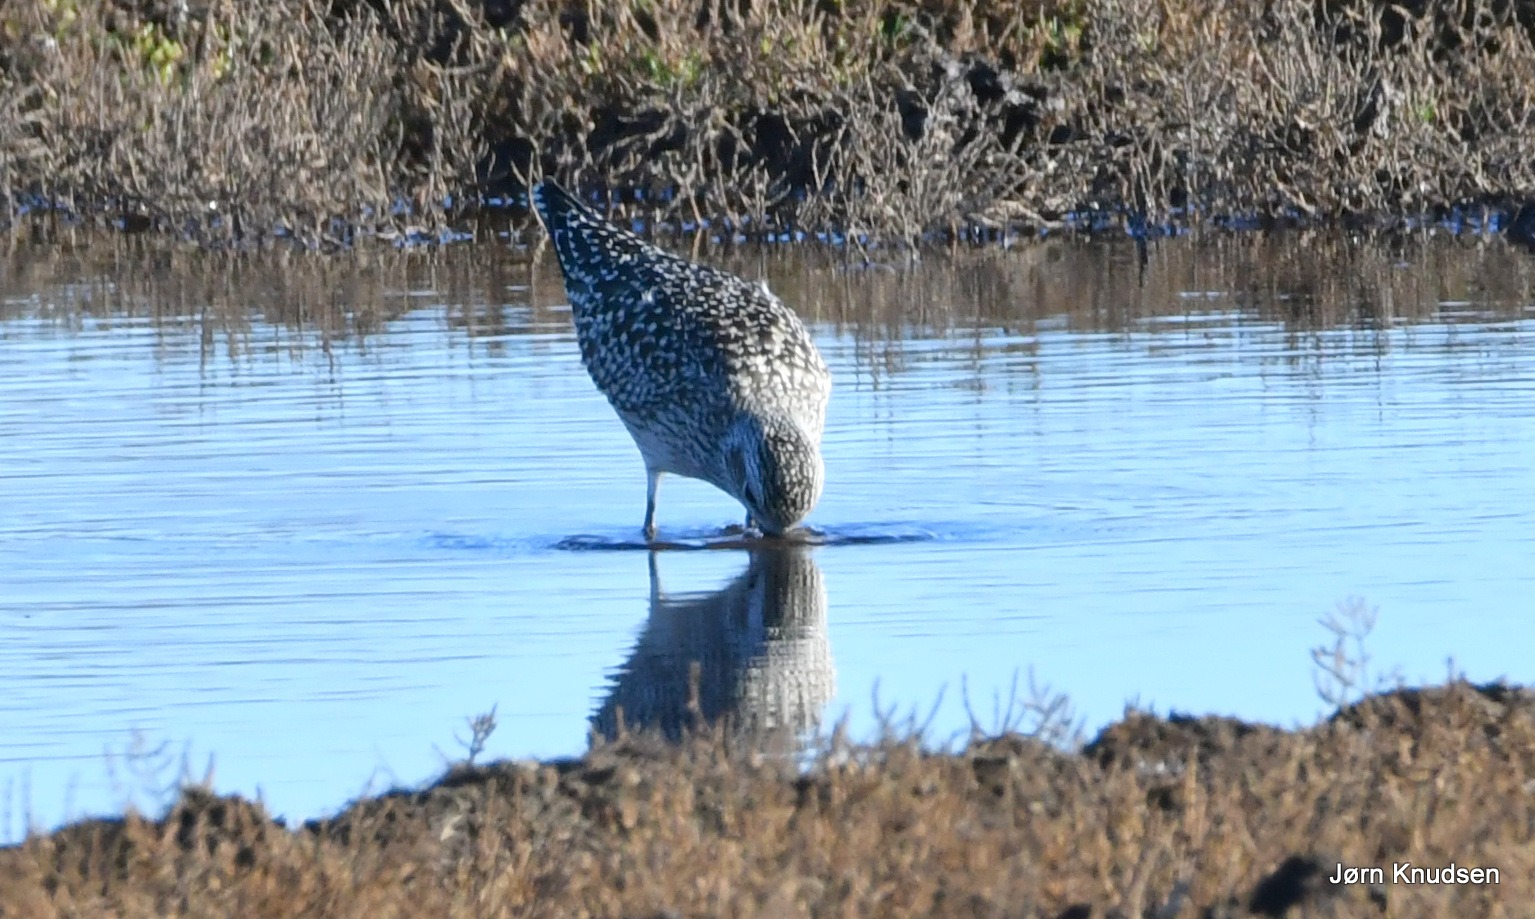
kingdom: Animalia
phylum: Chordata
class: Aves
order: Charadriiformes
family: Charadriidae
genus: Pluvialis
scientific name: Pluvialis squatarola
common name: Strandhjejle
